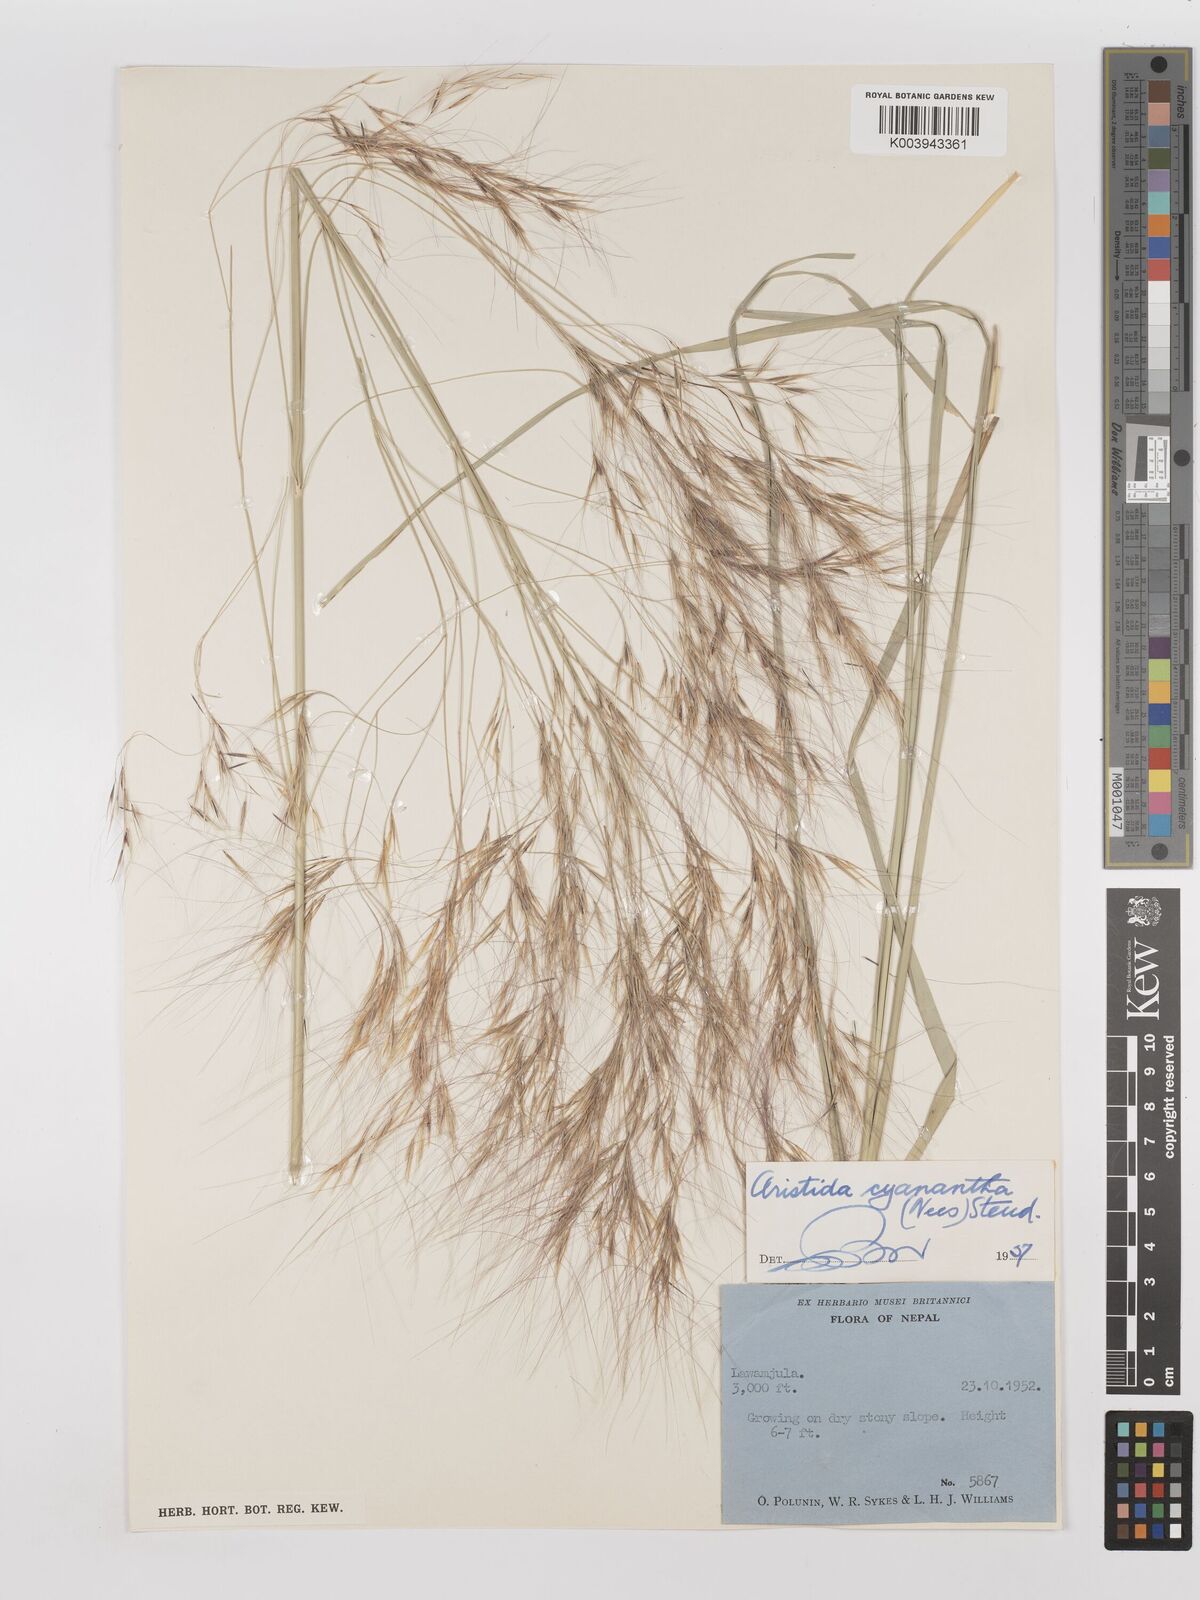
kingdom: Plantae
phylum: Tracheophyta
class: Liliopsida
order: Poales
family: Poaceae
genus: Aristida
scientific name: Aristida cyanantha
